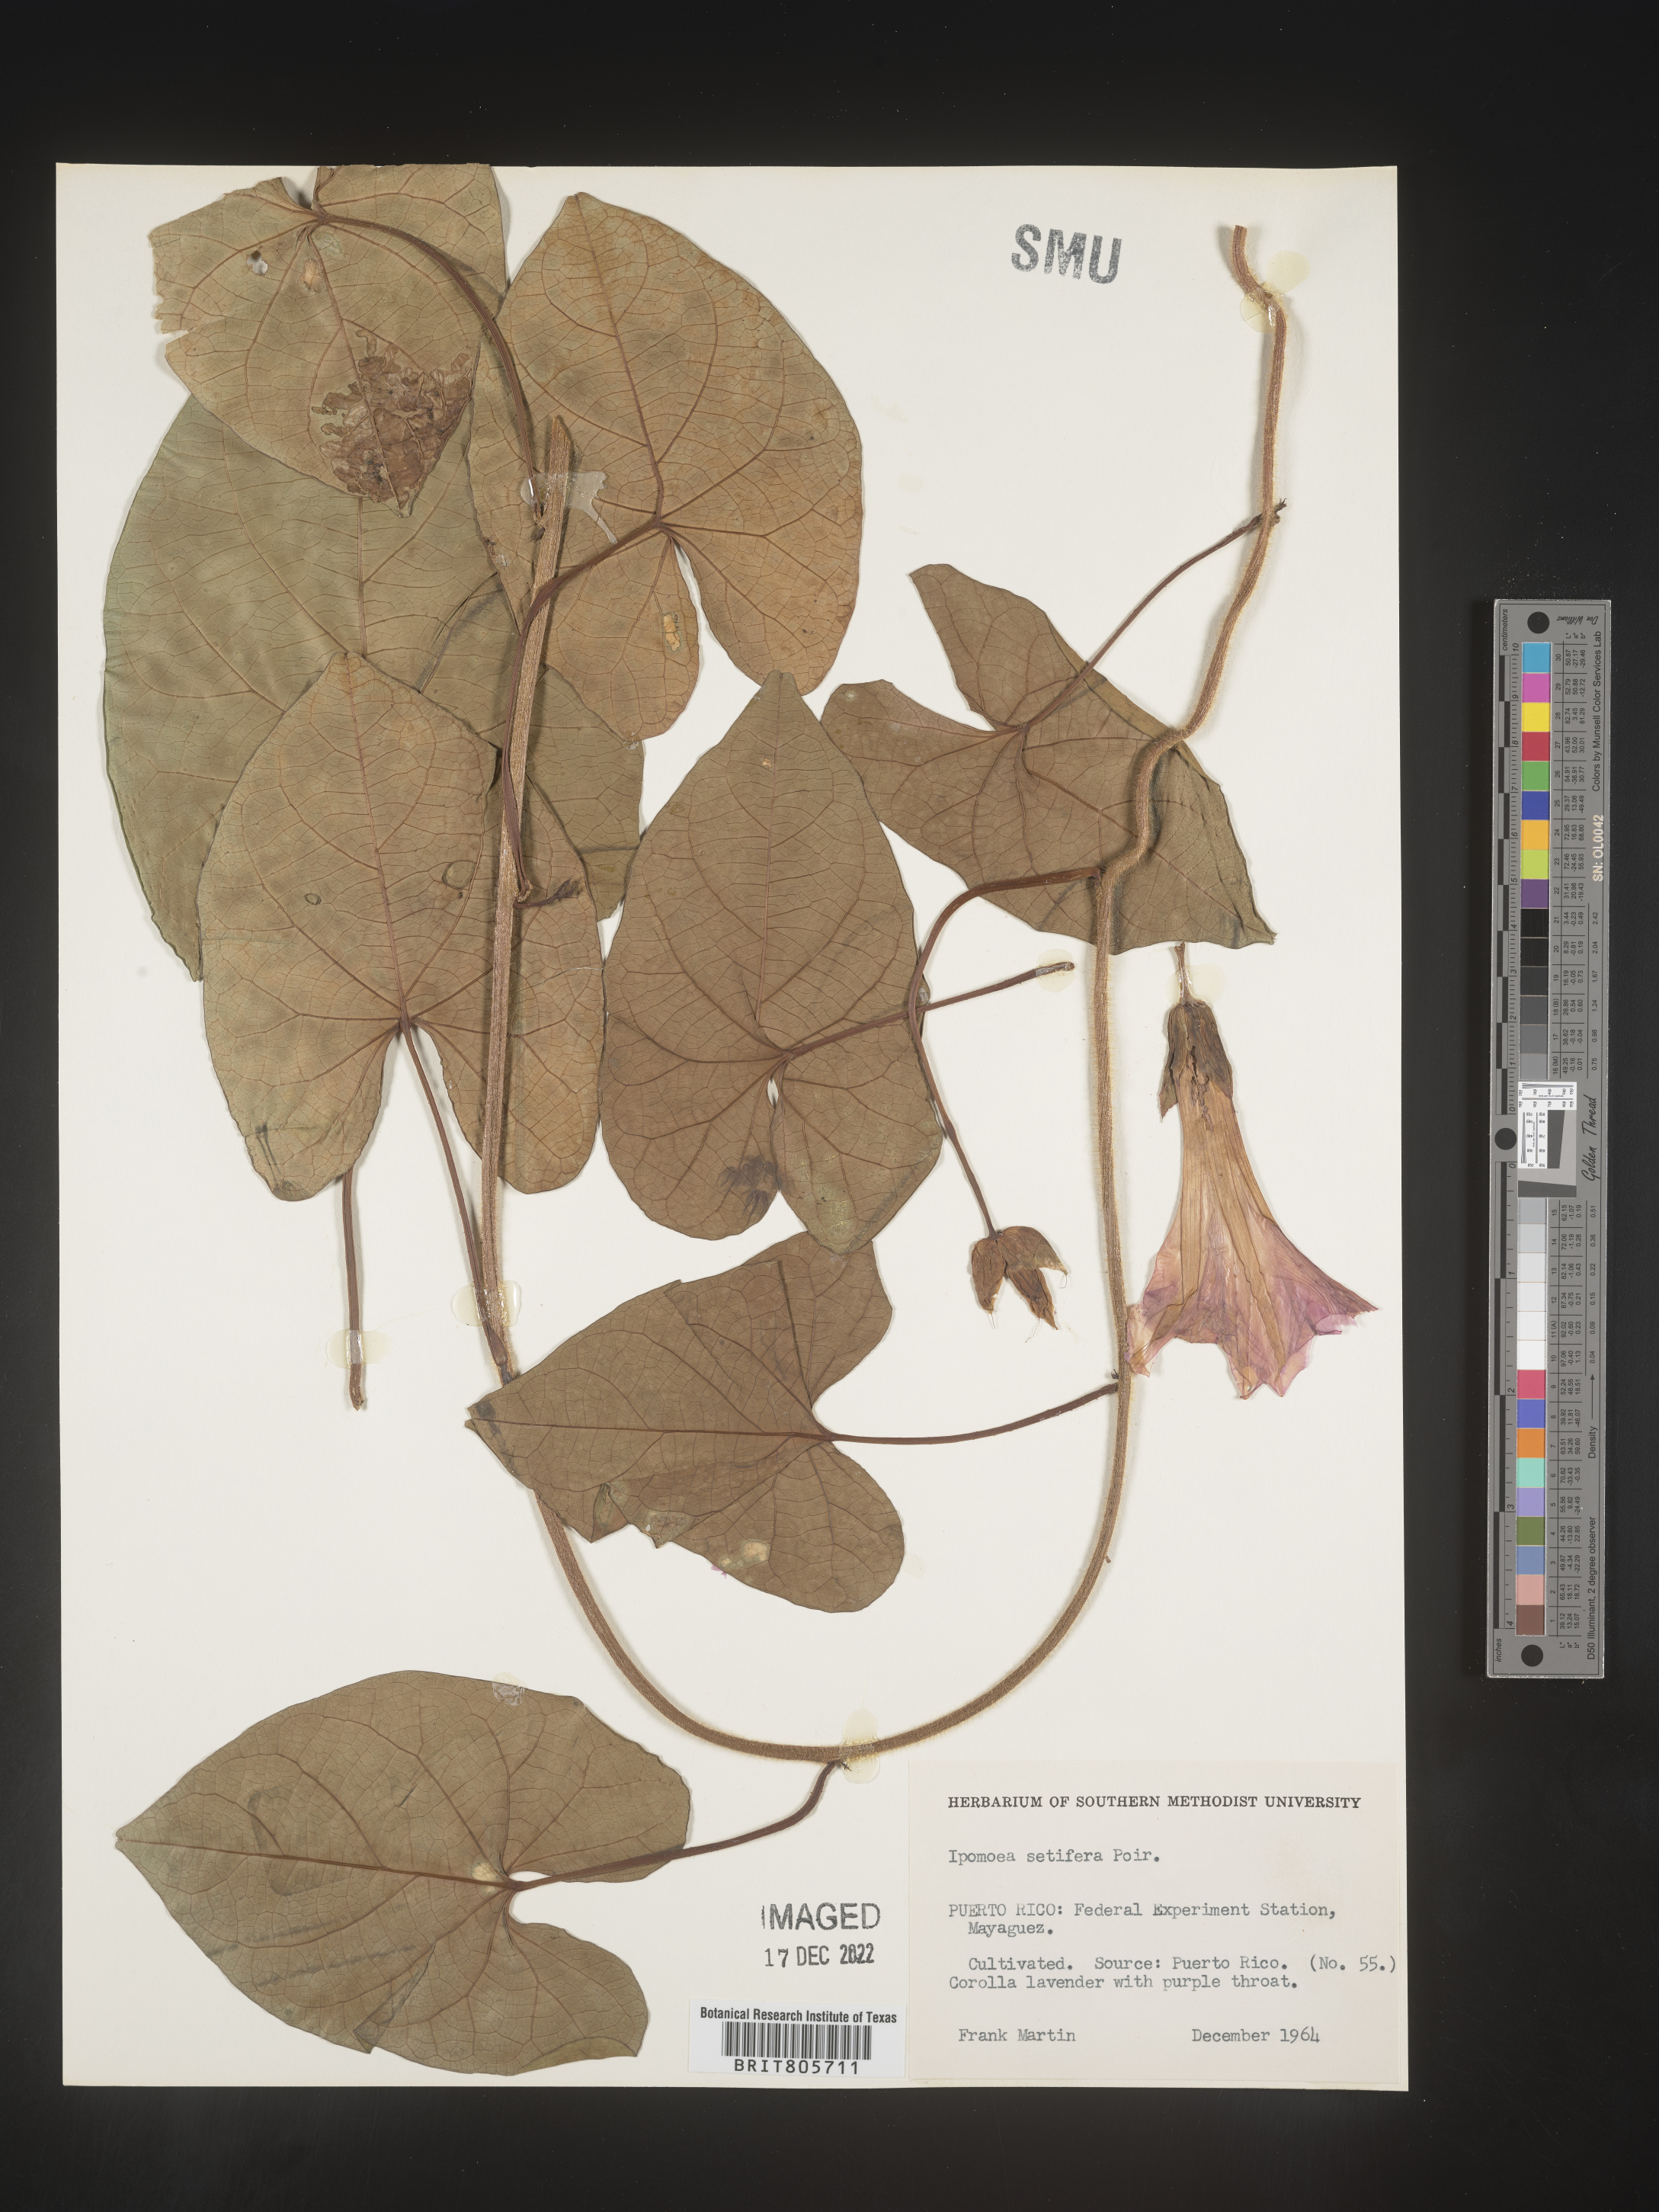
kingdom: Plantae
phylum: Tracheophyta
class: Magnoliopsida
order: Solanales
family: Convolvulaceae
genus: Ipomoea
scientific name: Ipomoea
